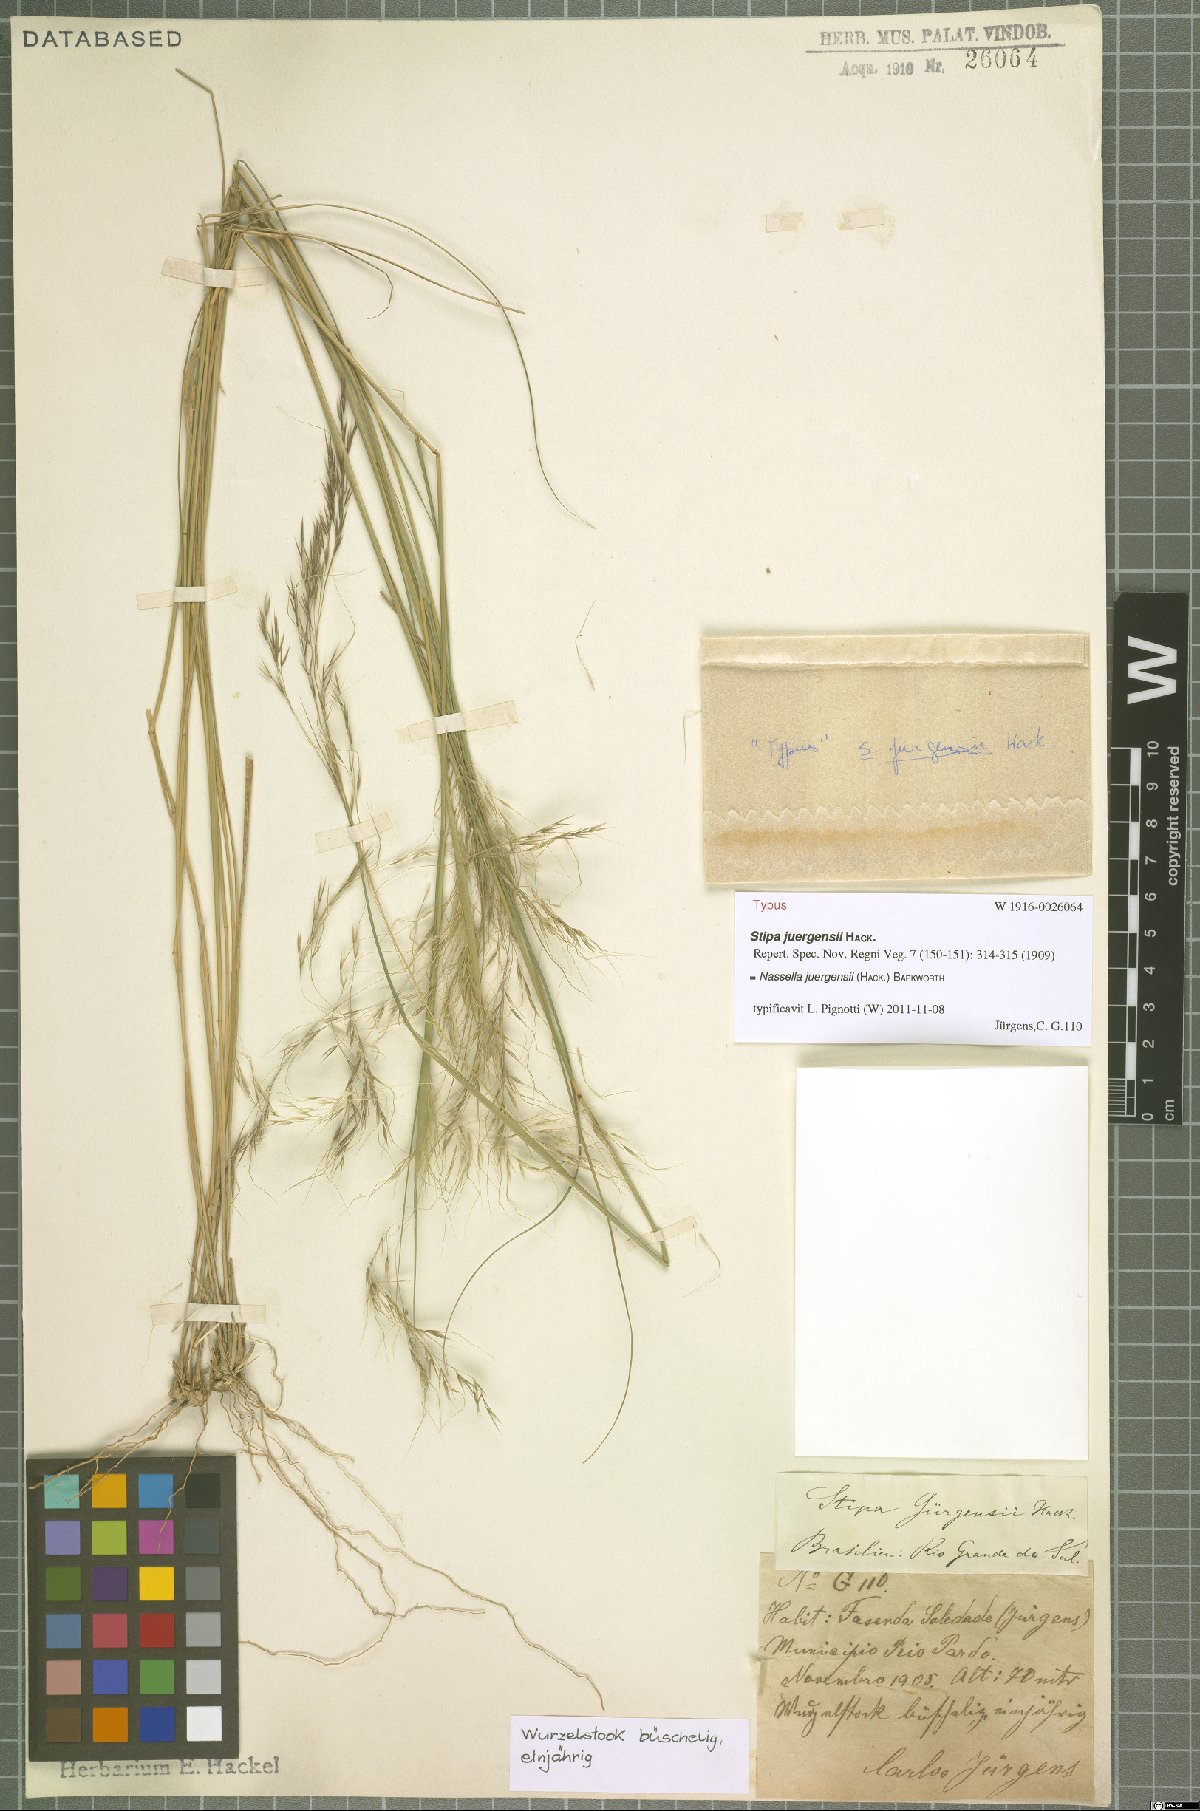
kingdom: Plantae
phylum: Tracheophyta
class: Liliopsida
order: Poales
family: Poaceae
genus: Nassella
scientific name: Nassella juergensii
